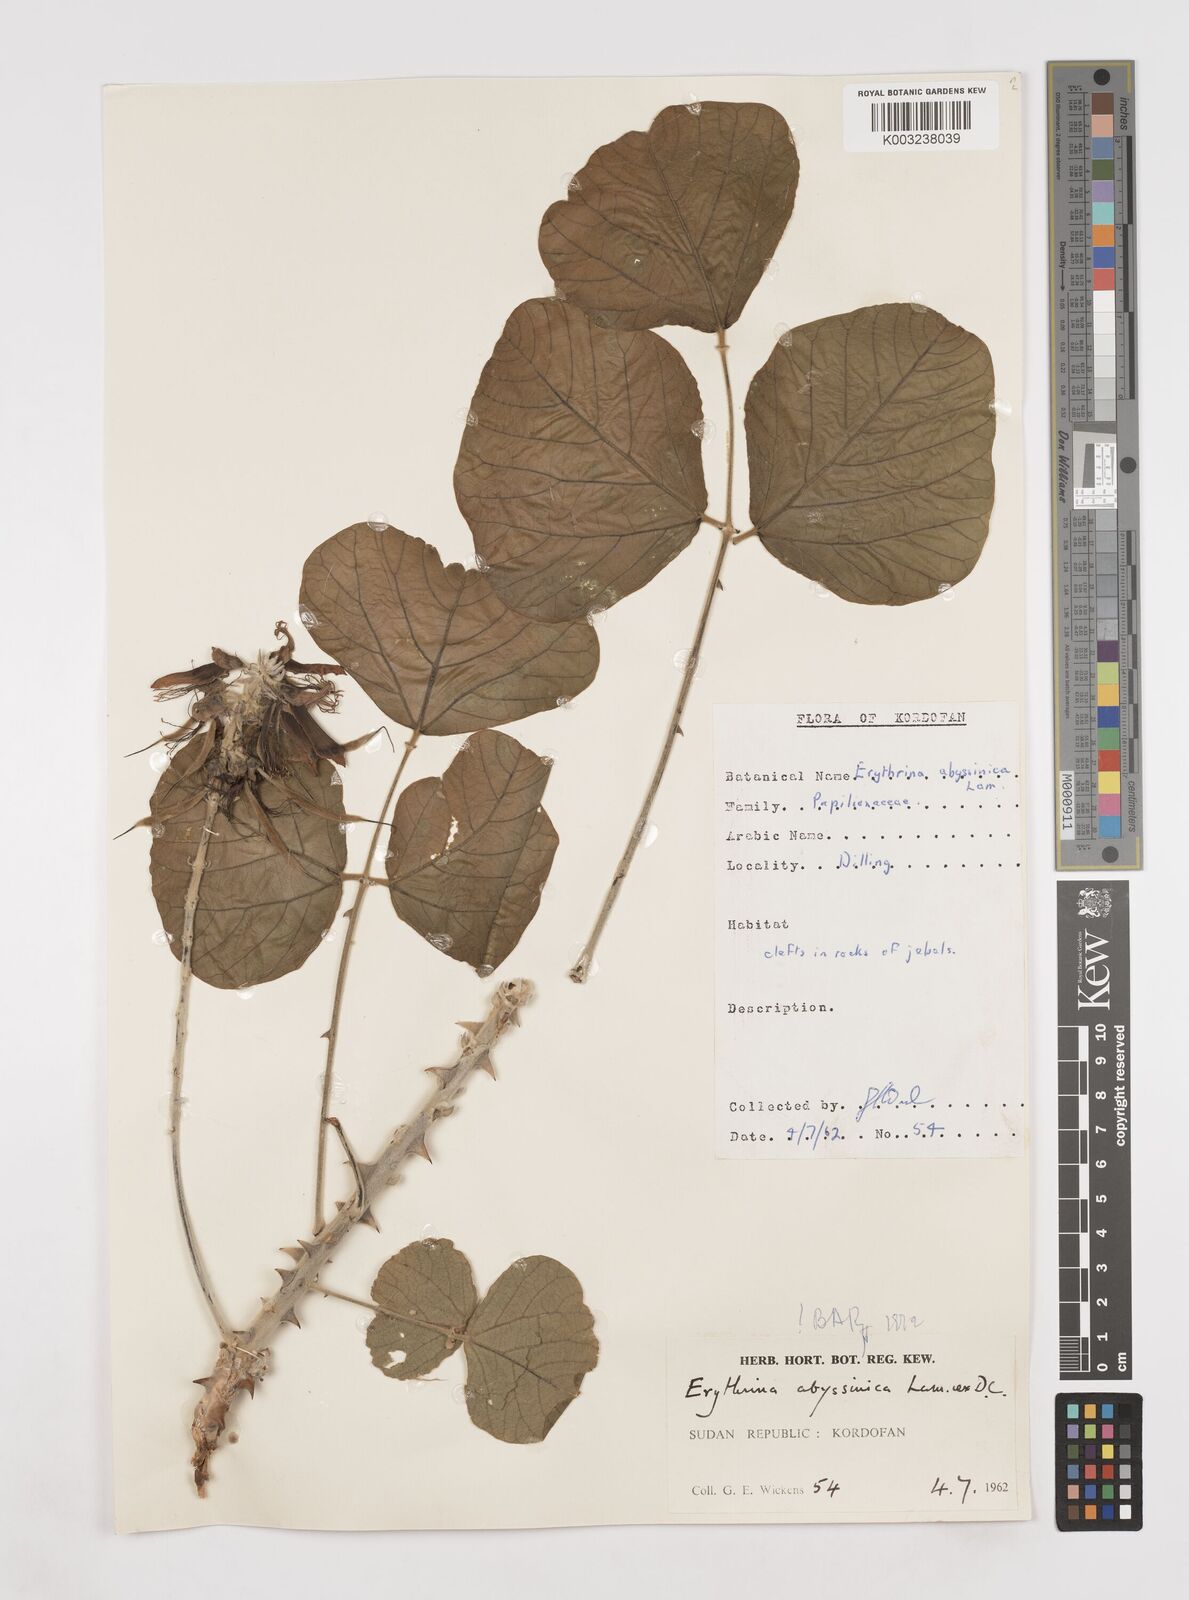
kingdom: Plantae
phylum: Tracheophyta
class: Magnoliopsida
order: Fabales
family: Fabaceae
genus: Erythrina
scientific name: Erythrina abyssinica
